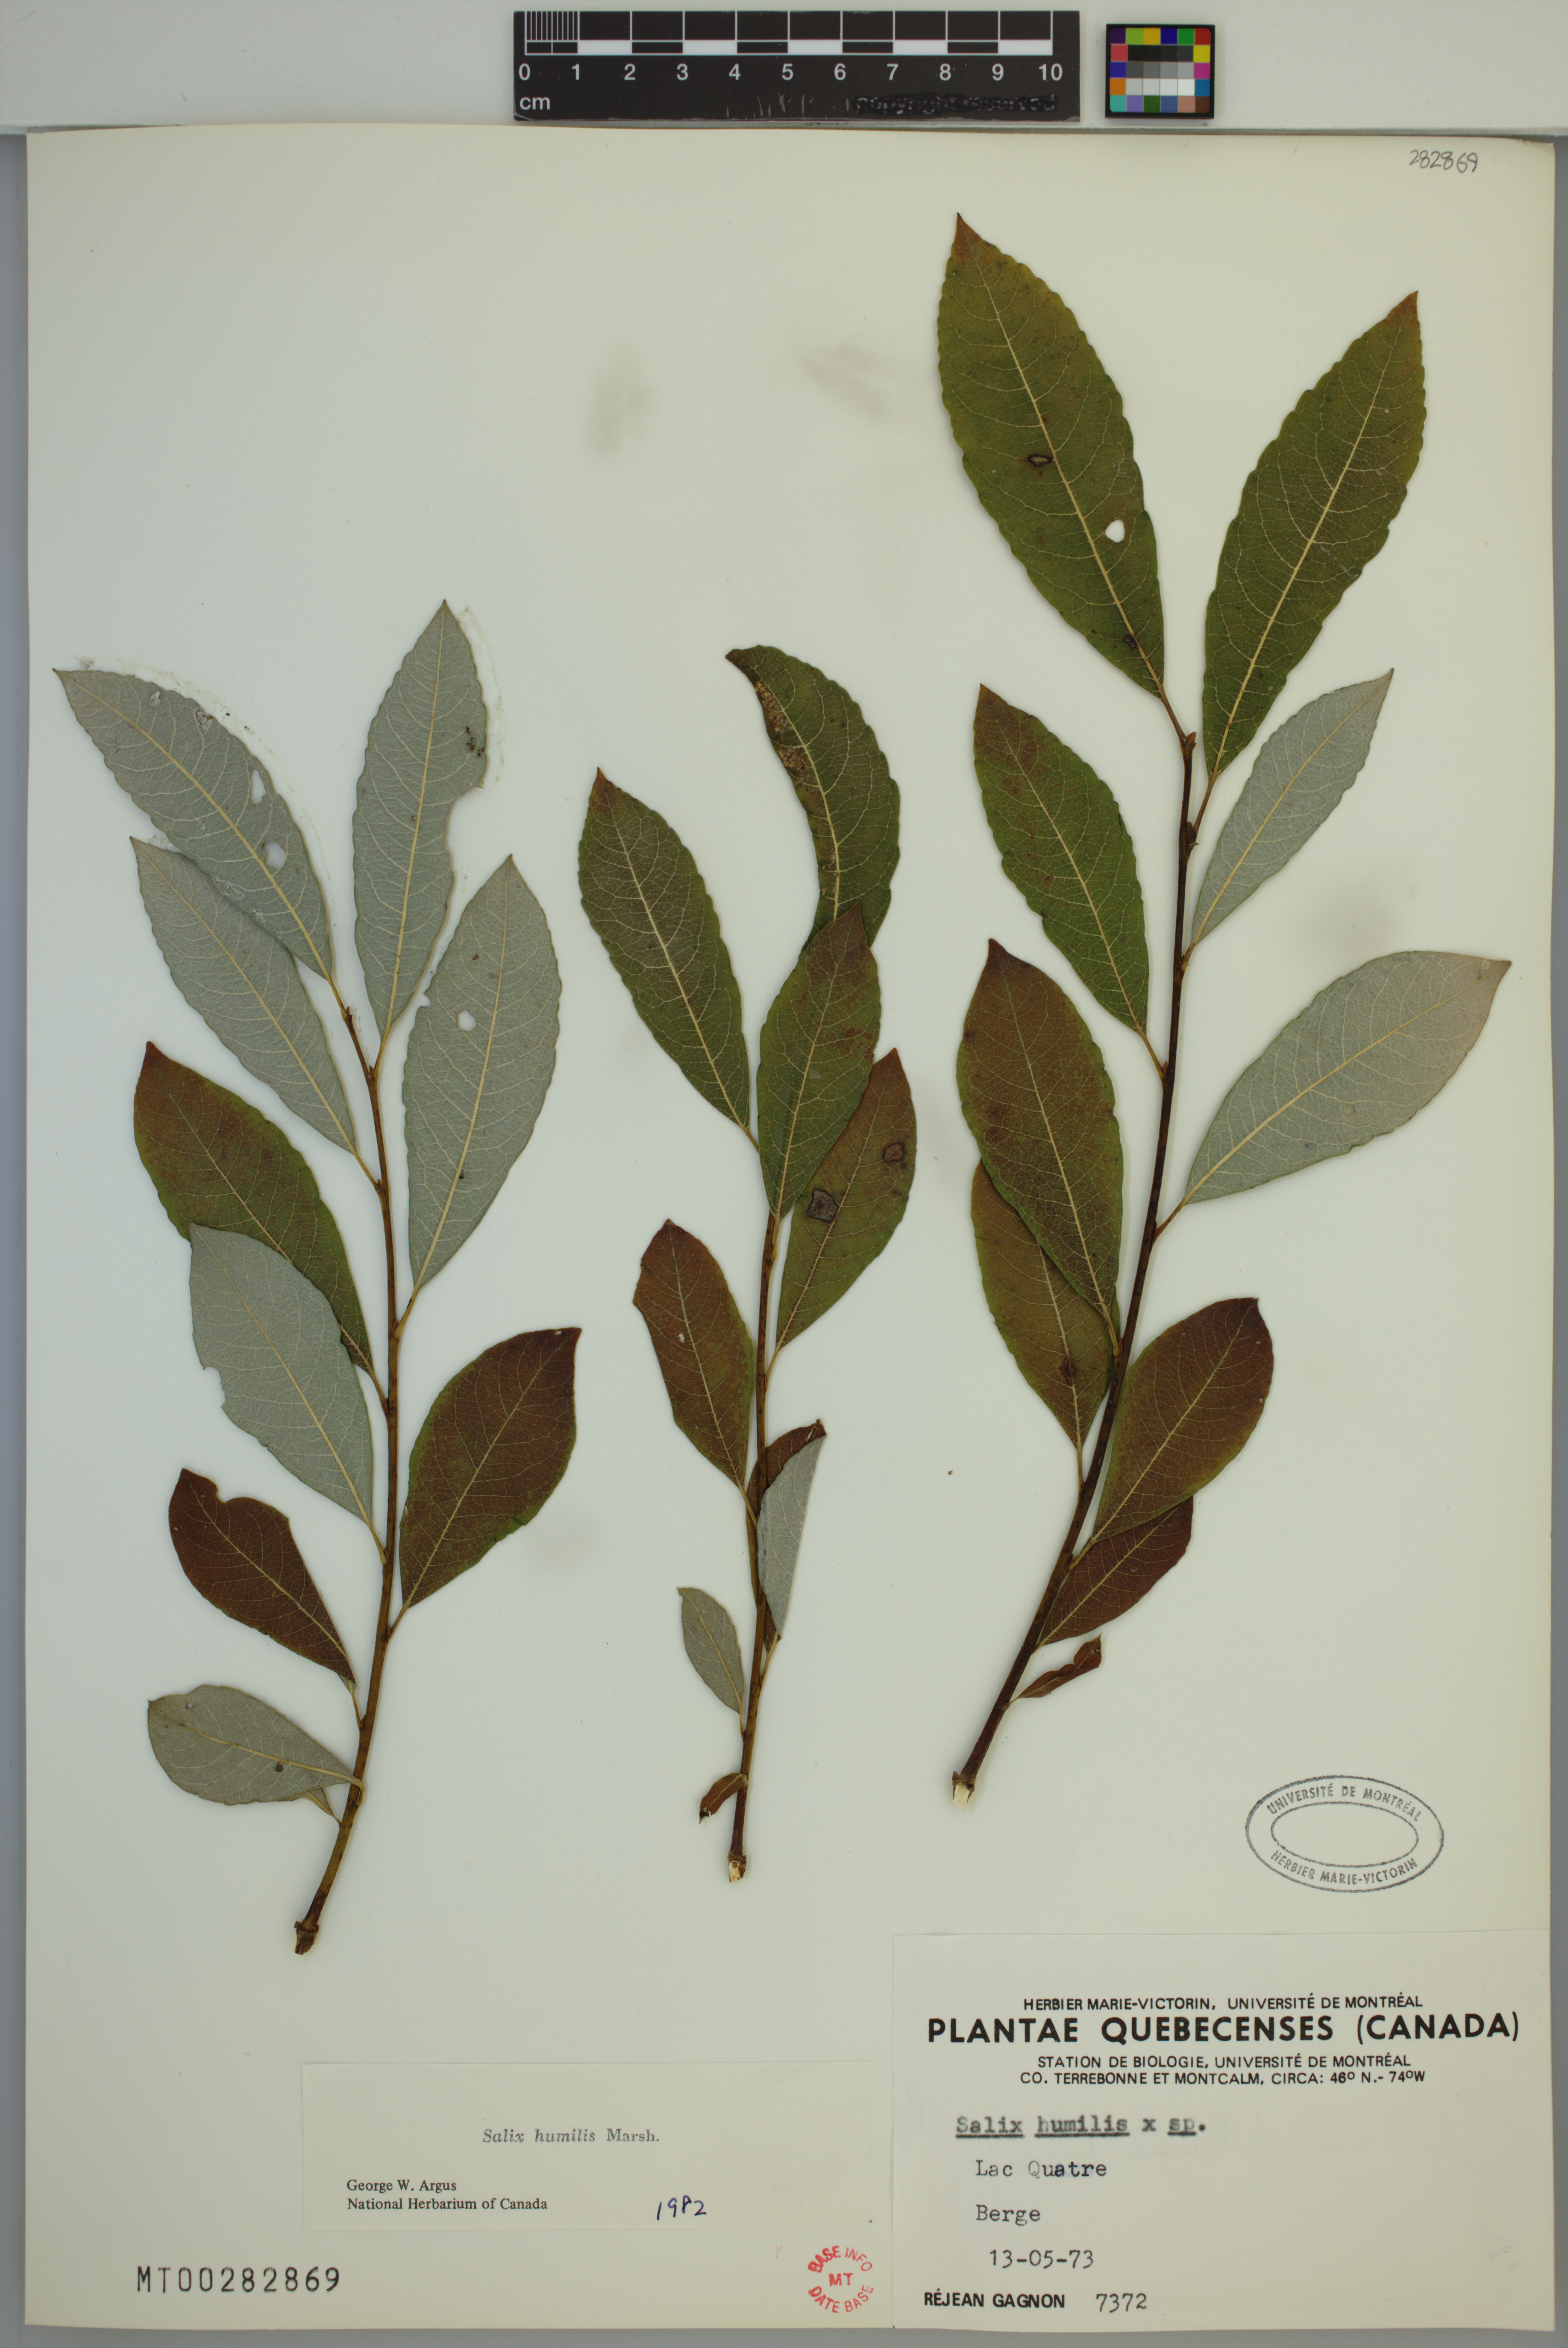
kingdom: Plantae
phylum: Tracheophyta
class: Magnoliopsida
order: Malpighiales
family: Salicaceae
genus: Salix
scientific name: Salix humilis
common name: Prairie willow
